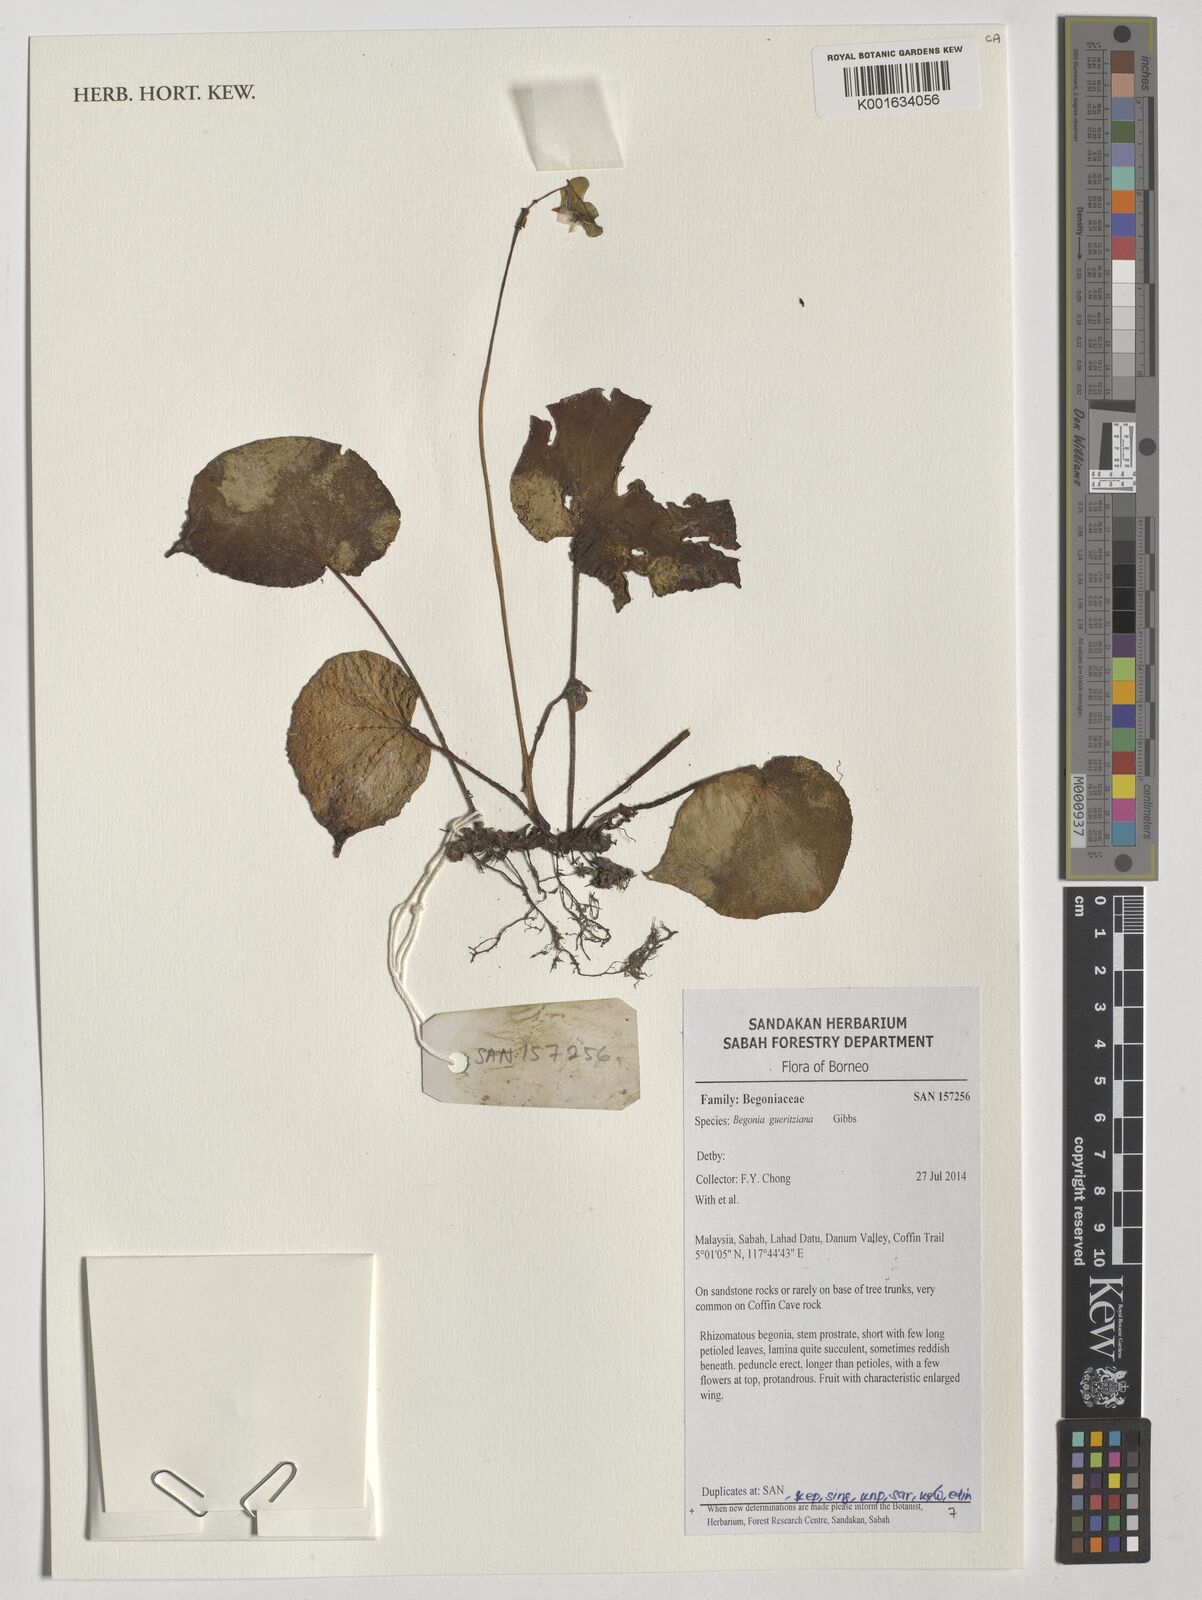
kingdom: Plantae
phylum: Tracheophyta
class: Magnoliopsida
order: Cucurbitales
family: Begoniaceae
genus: Begonia
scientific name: Begonia gueritziana
